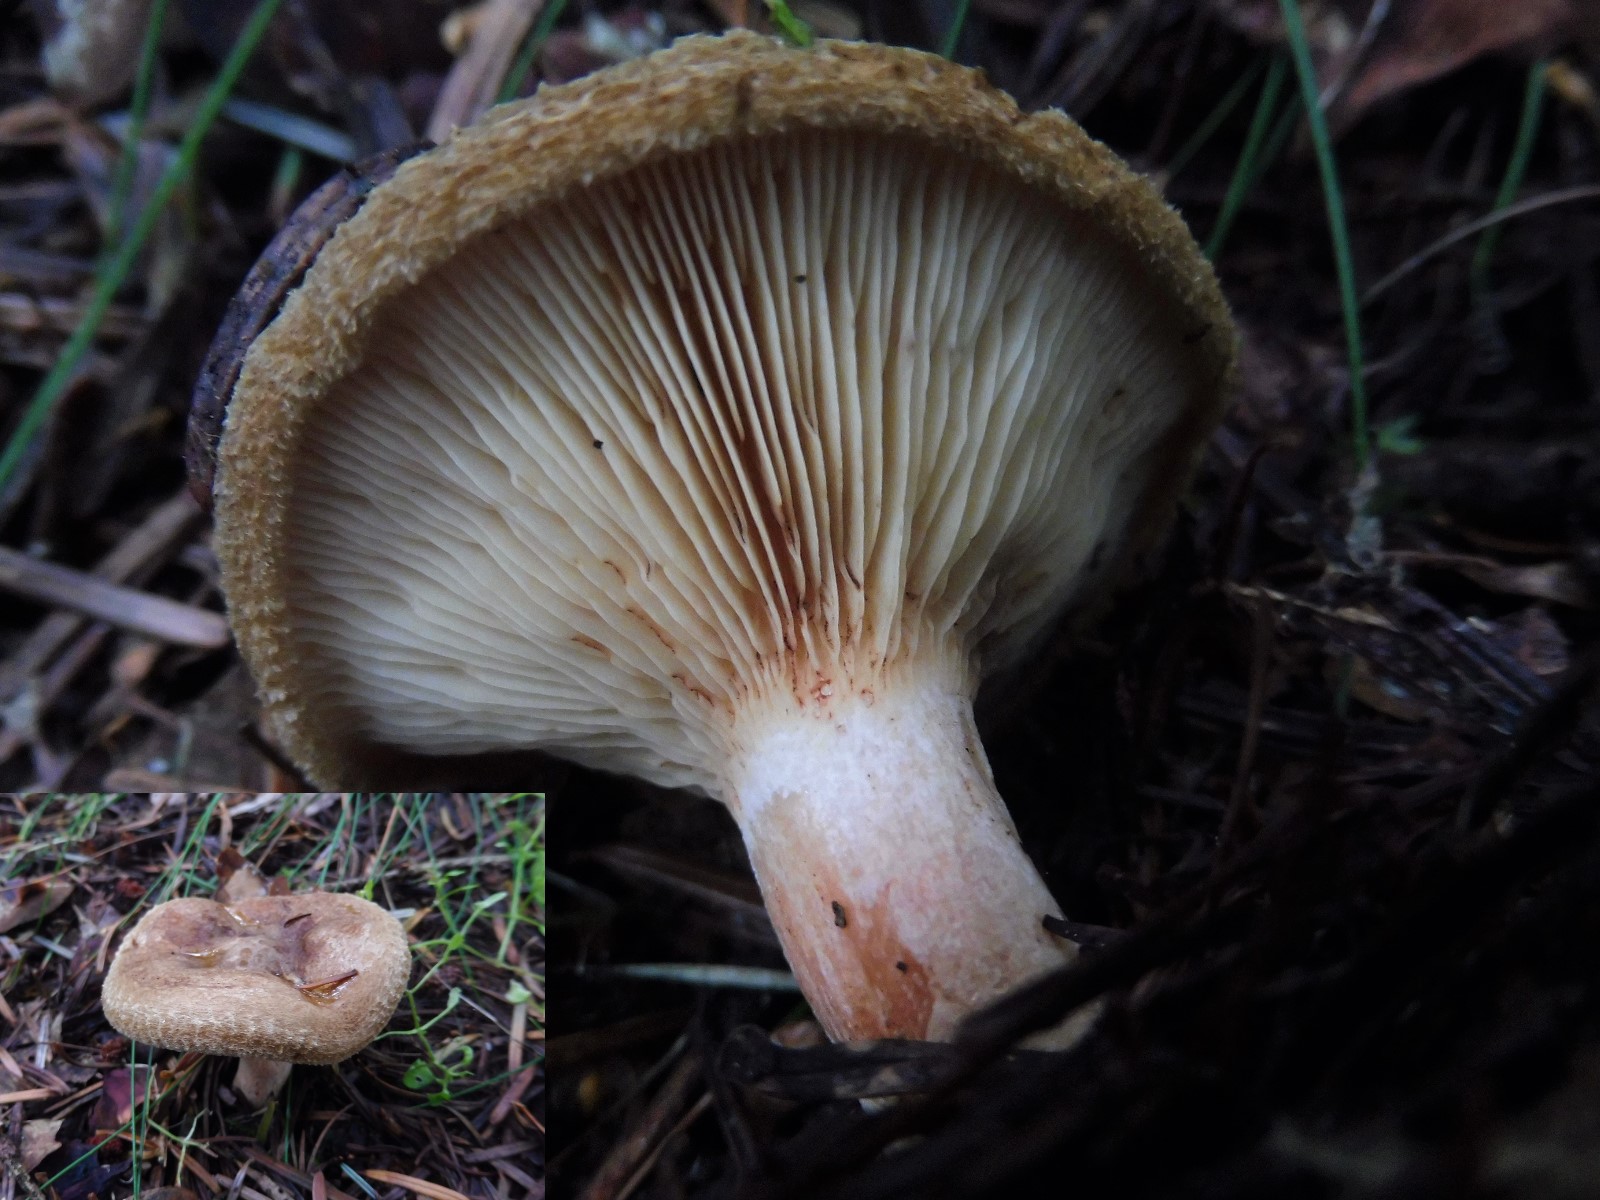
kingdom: Fungi
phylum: Basidiomycota
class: Agaricomycetes
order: Boletales
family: Paxillaceae
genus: Paxillus
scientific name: Paxillus involutus
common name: almindelig netbladhat
